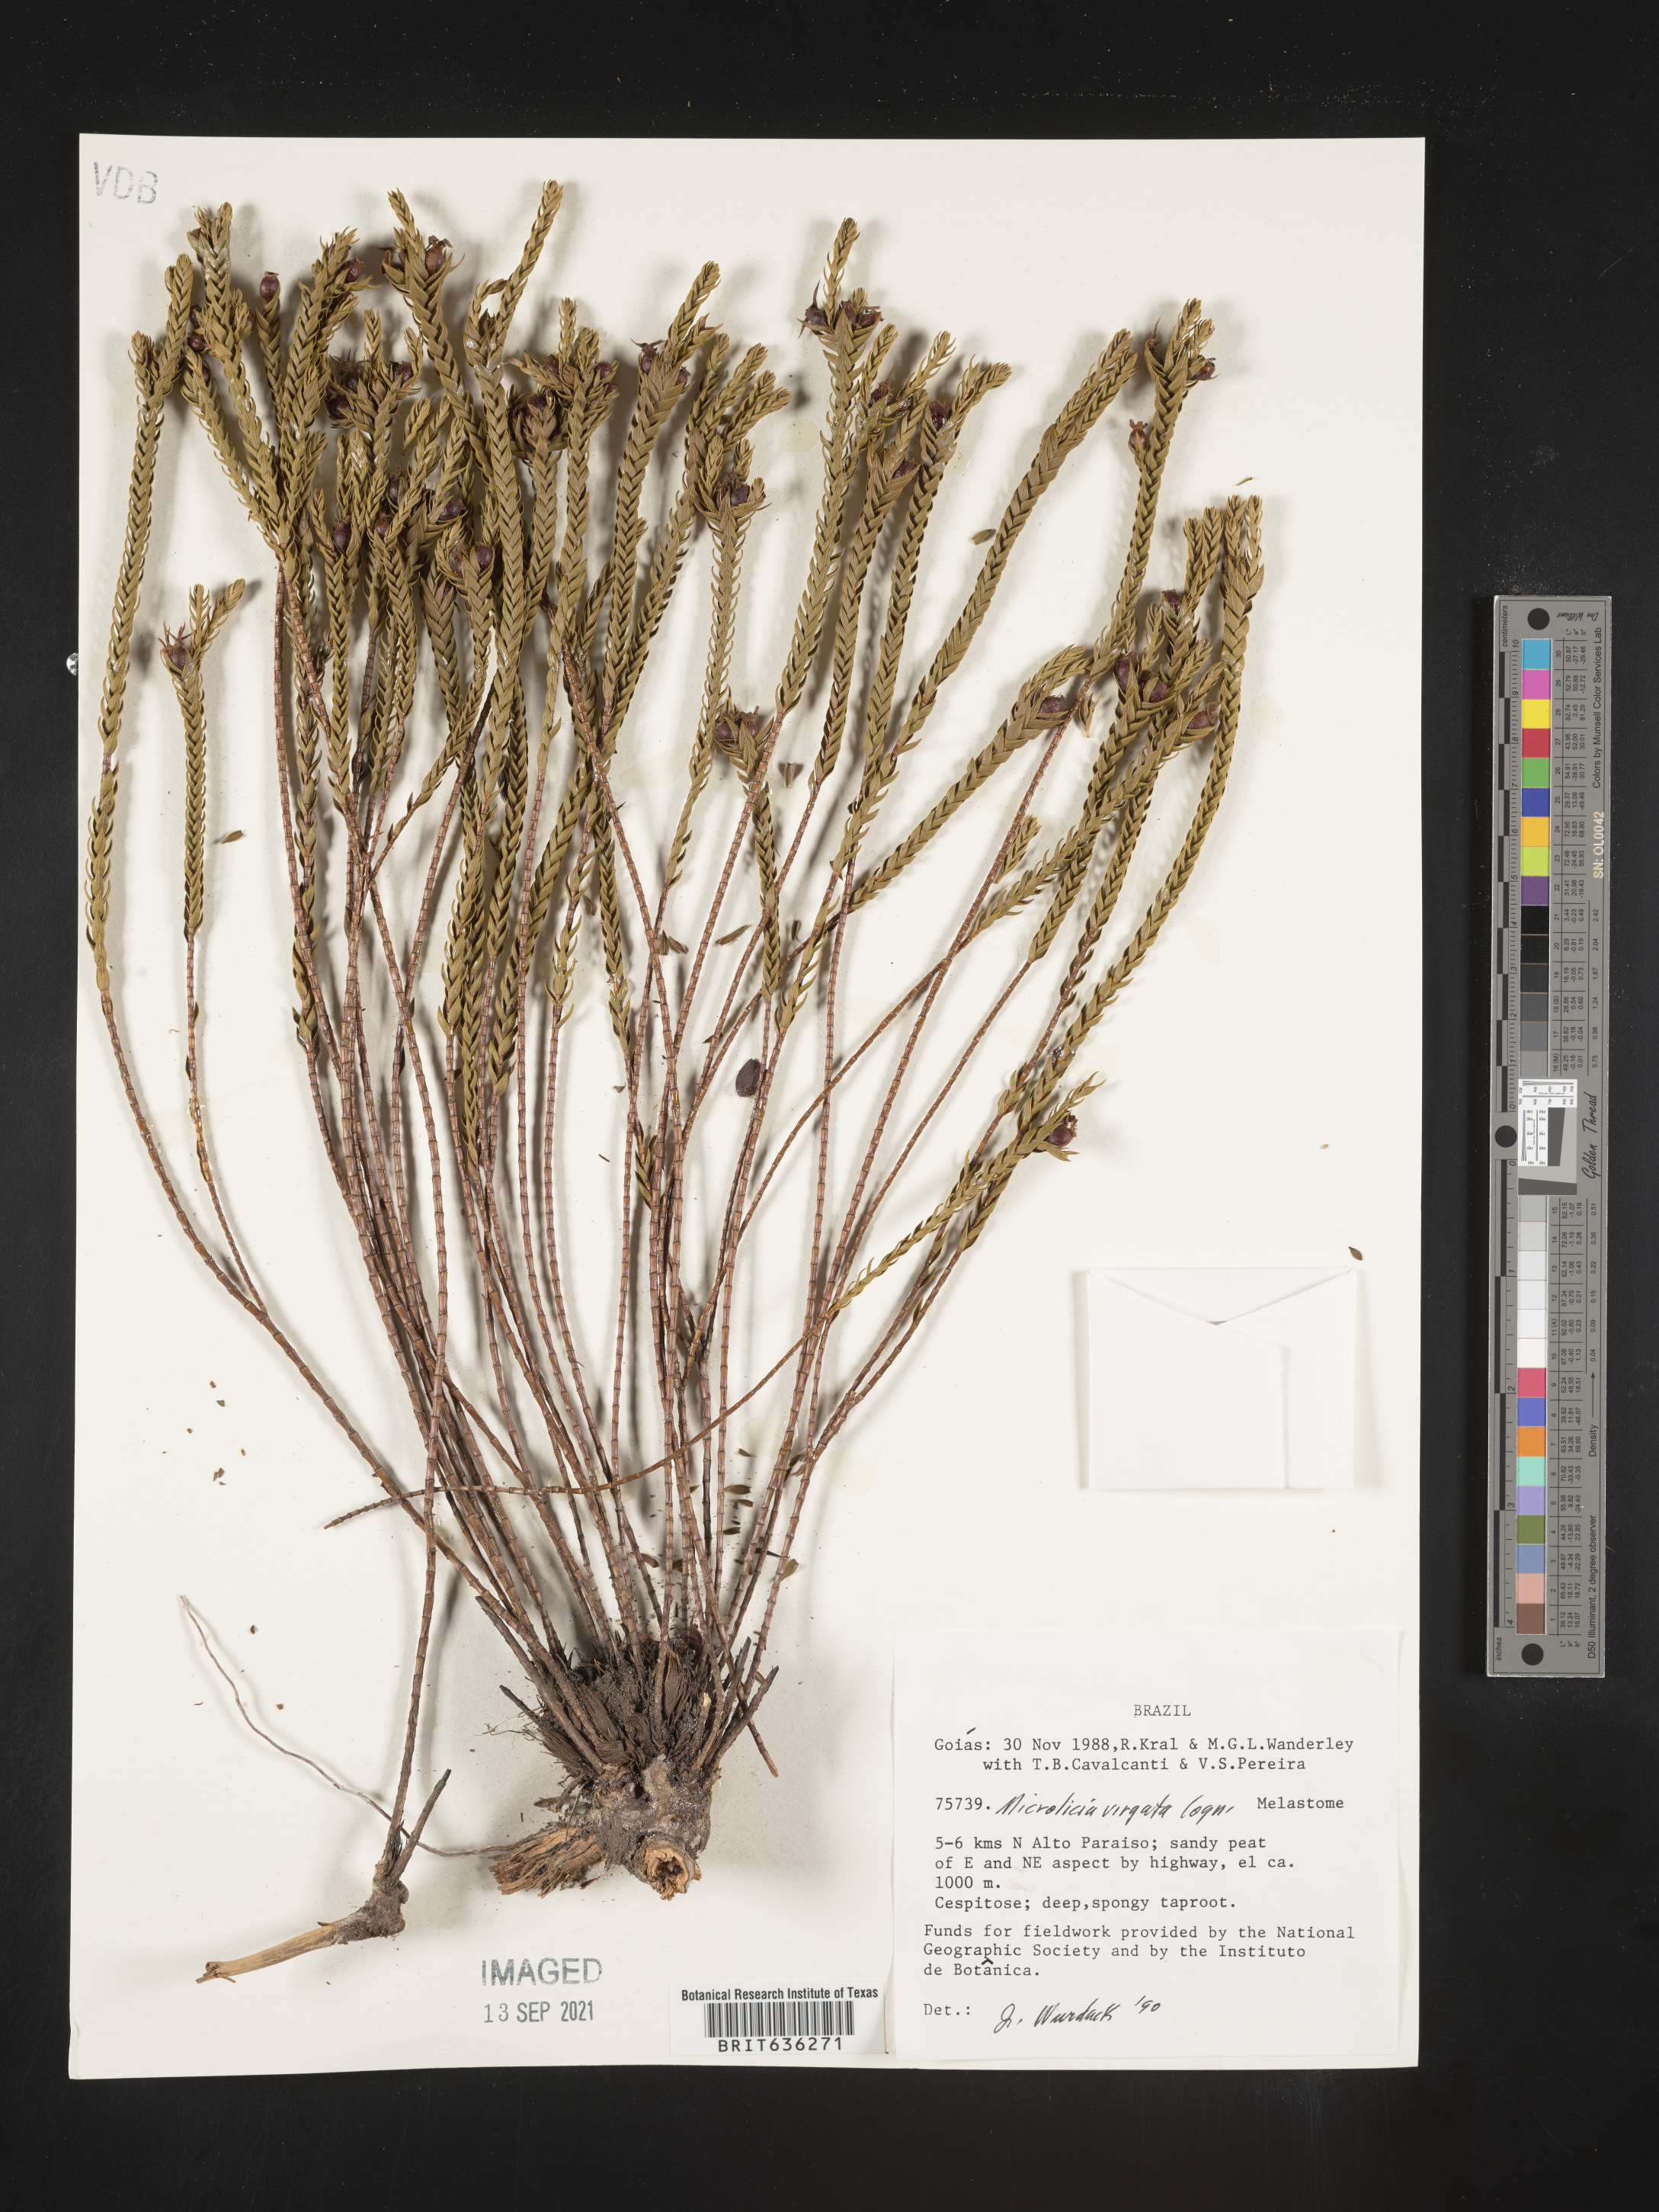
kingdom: Plantae
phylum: Tracheophyta
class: Magnoliopsida
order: Myrtales
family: Melastomataceae
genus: Microlicia
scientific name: Microlicia
